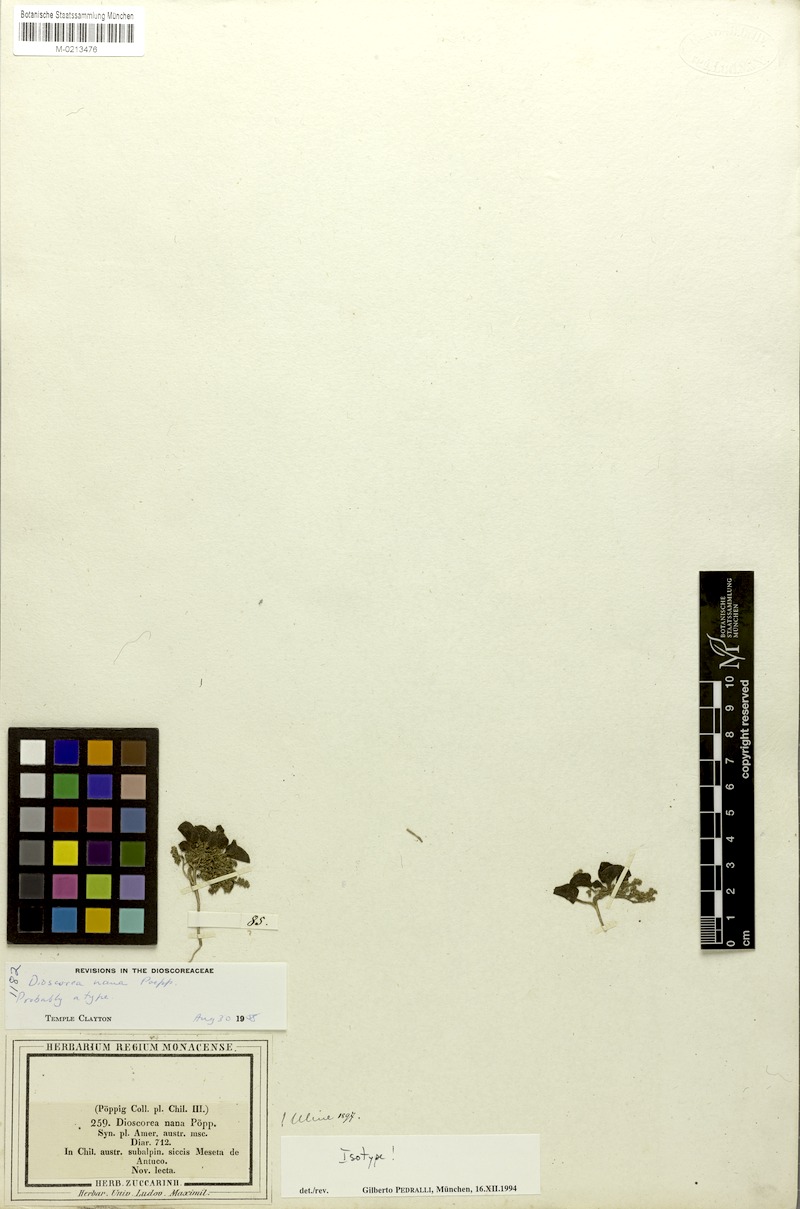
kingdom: Plantae
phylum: Tracheophyta
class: Liliopsida
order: Dioscoreales
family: Dioscoreaceae
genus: Dioscorea
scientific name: Dioscorea nana
